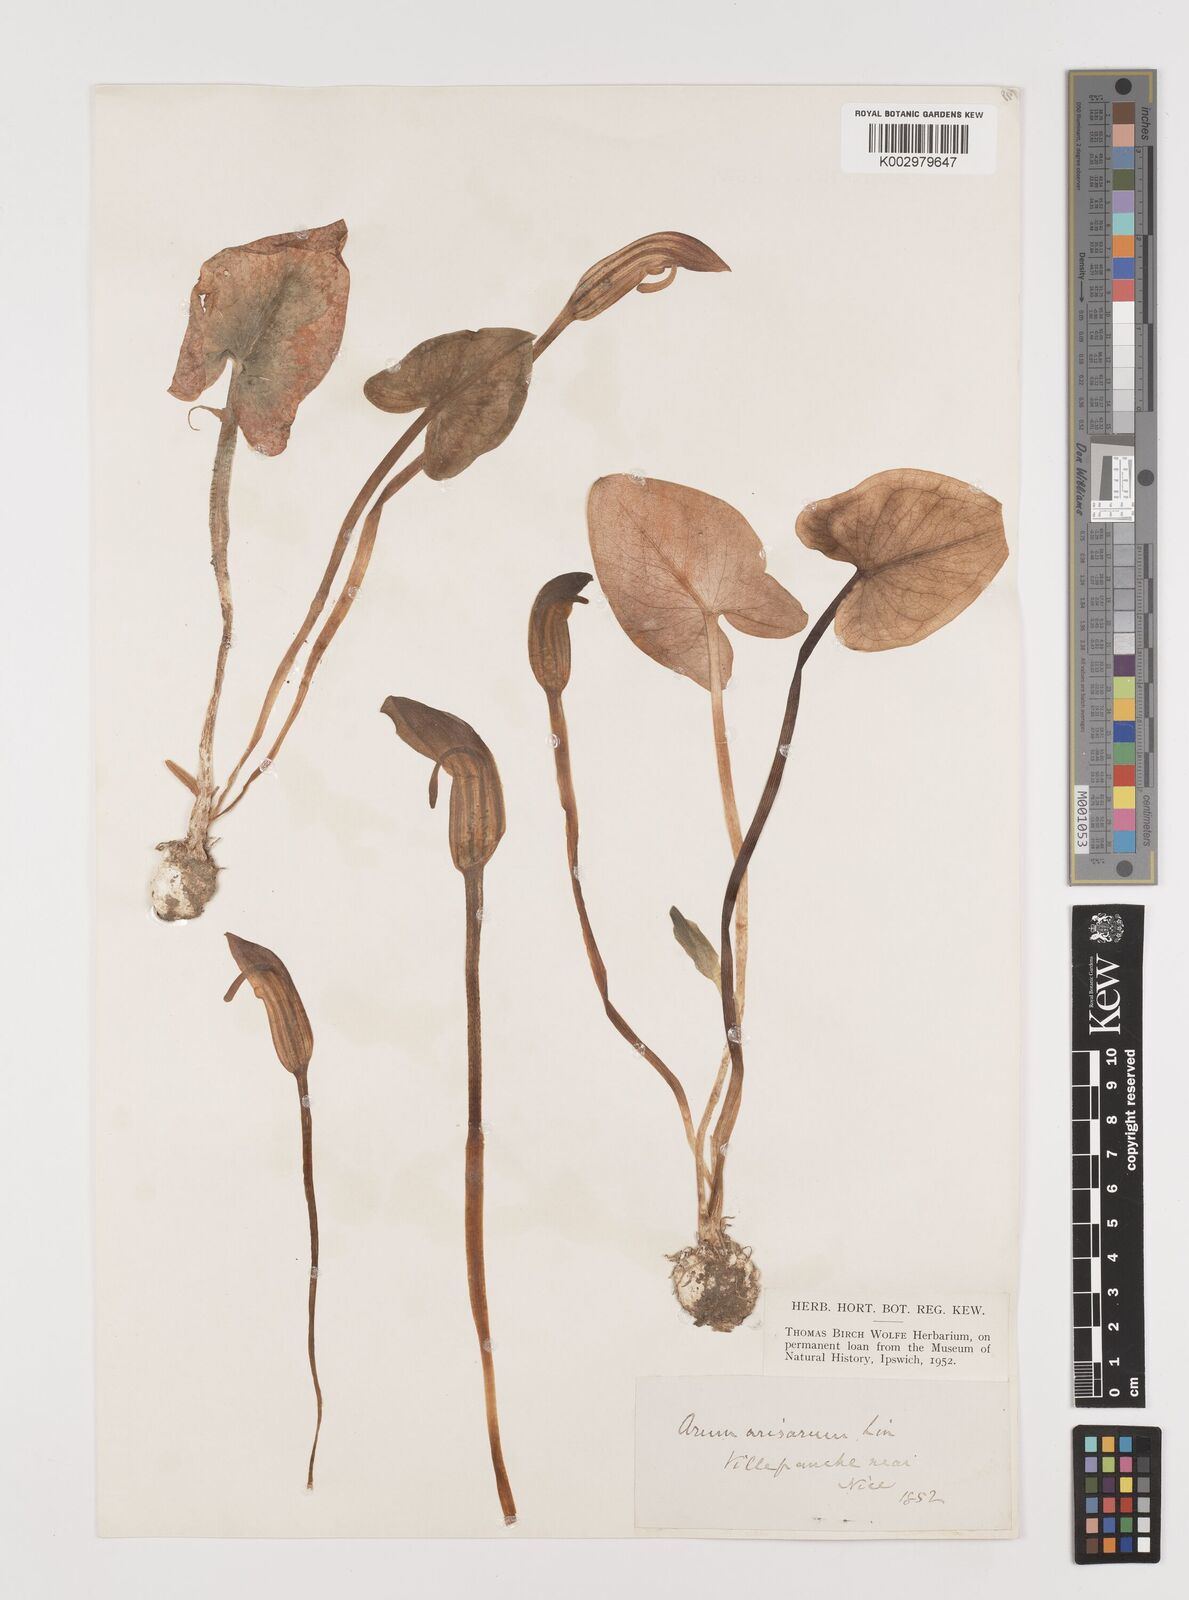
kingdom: Plantae
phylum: Tracheophyta
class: Liliopsida
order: Alismatales
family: Araceae
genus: Arisarum
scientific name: Arisarum vulgare
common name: Common arisarum
